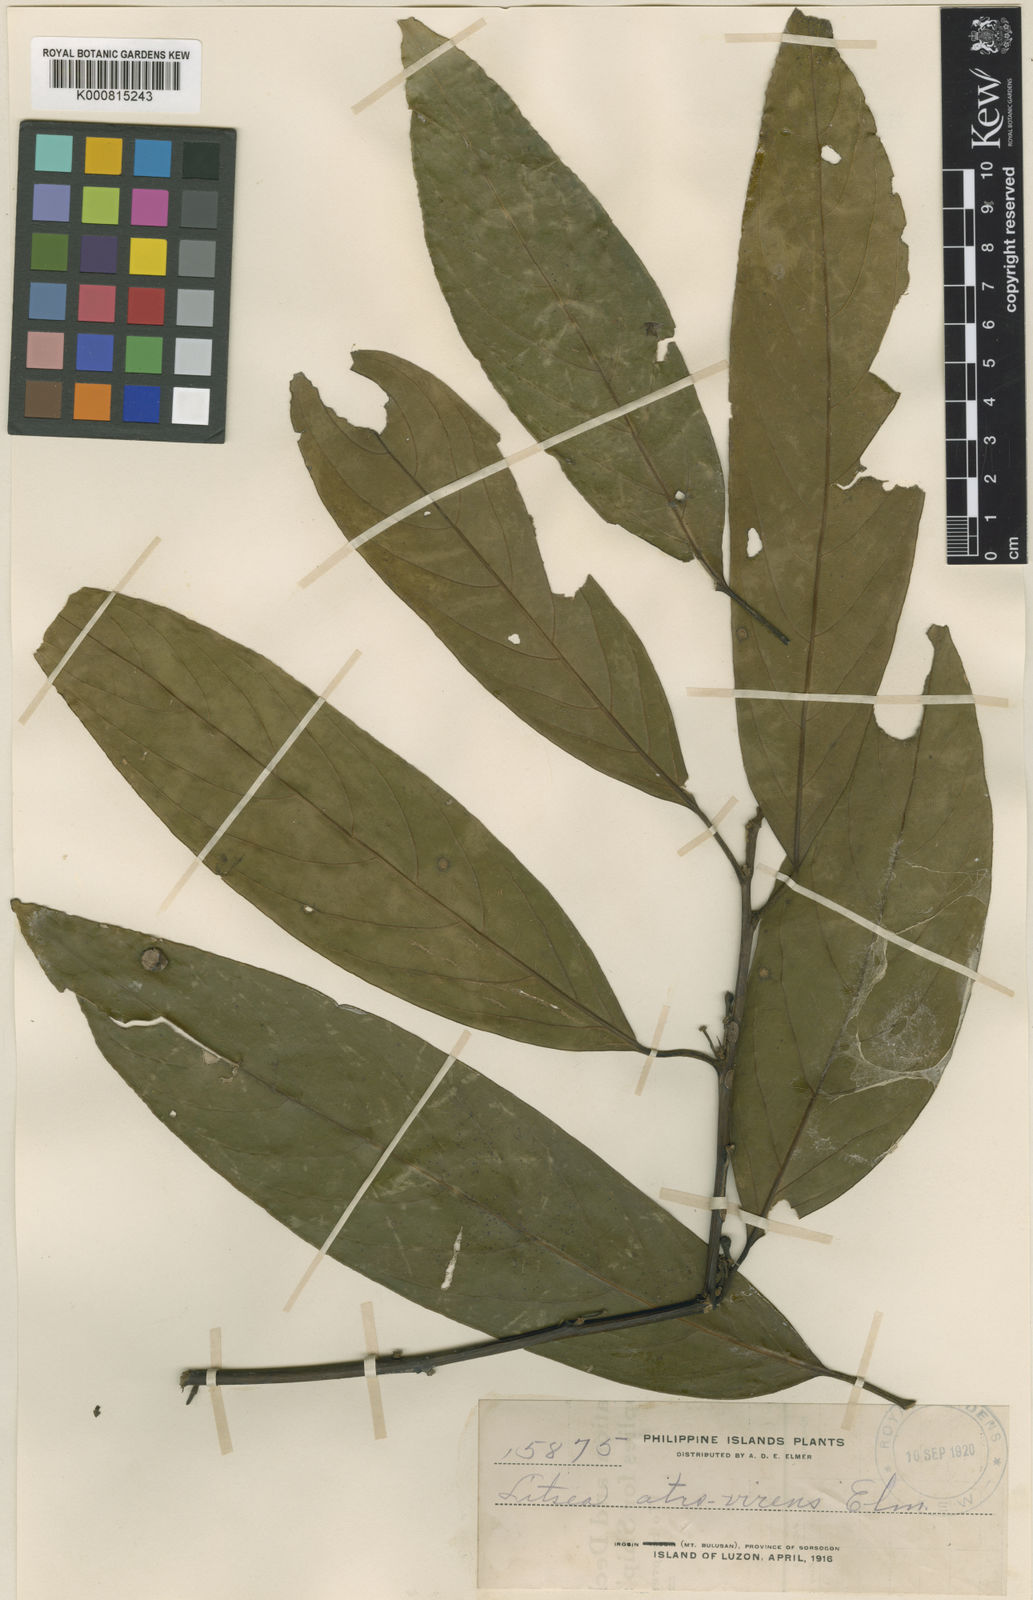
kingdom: Plantae
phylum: Tracheophyta
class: Magnoliopsida
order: Laurales
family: Lauraceae
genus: Litsea
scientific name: Litsea
